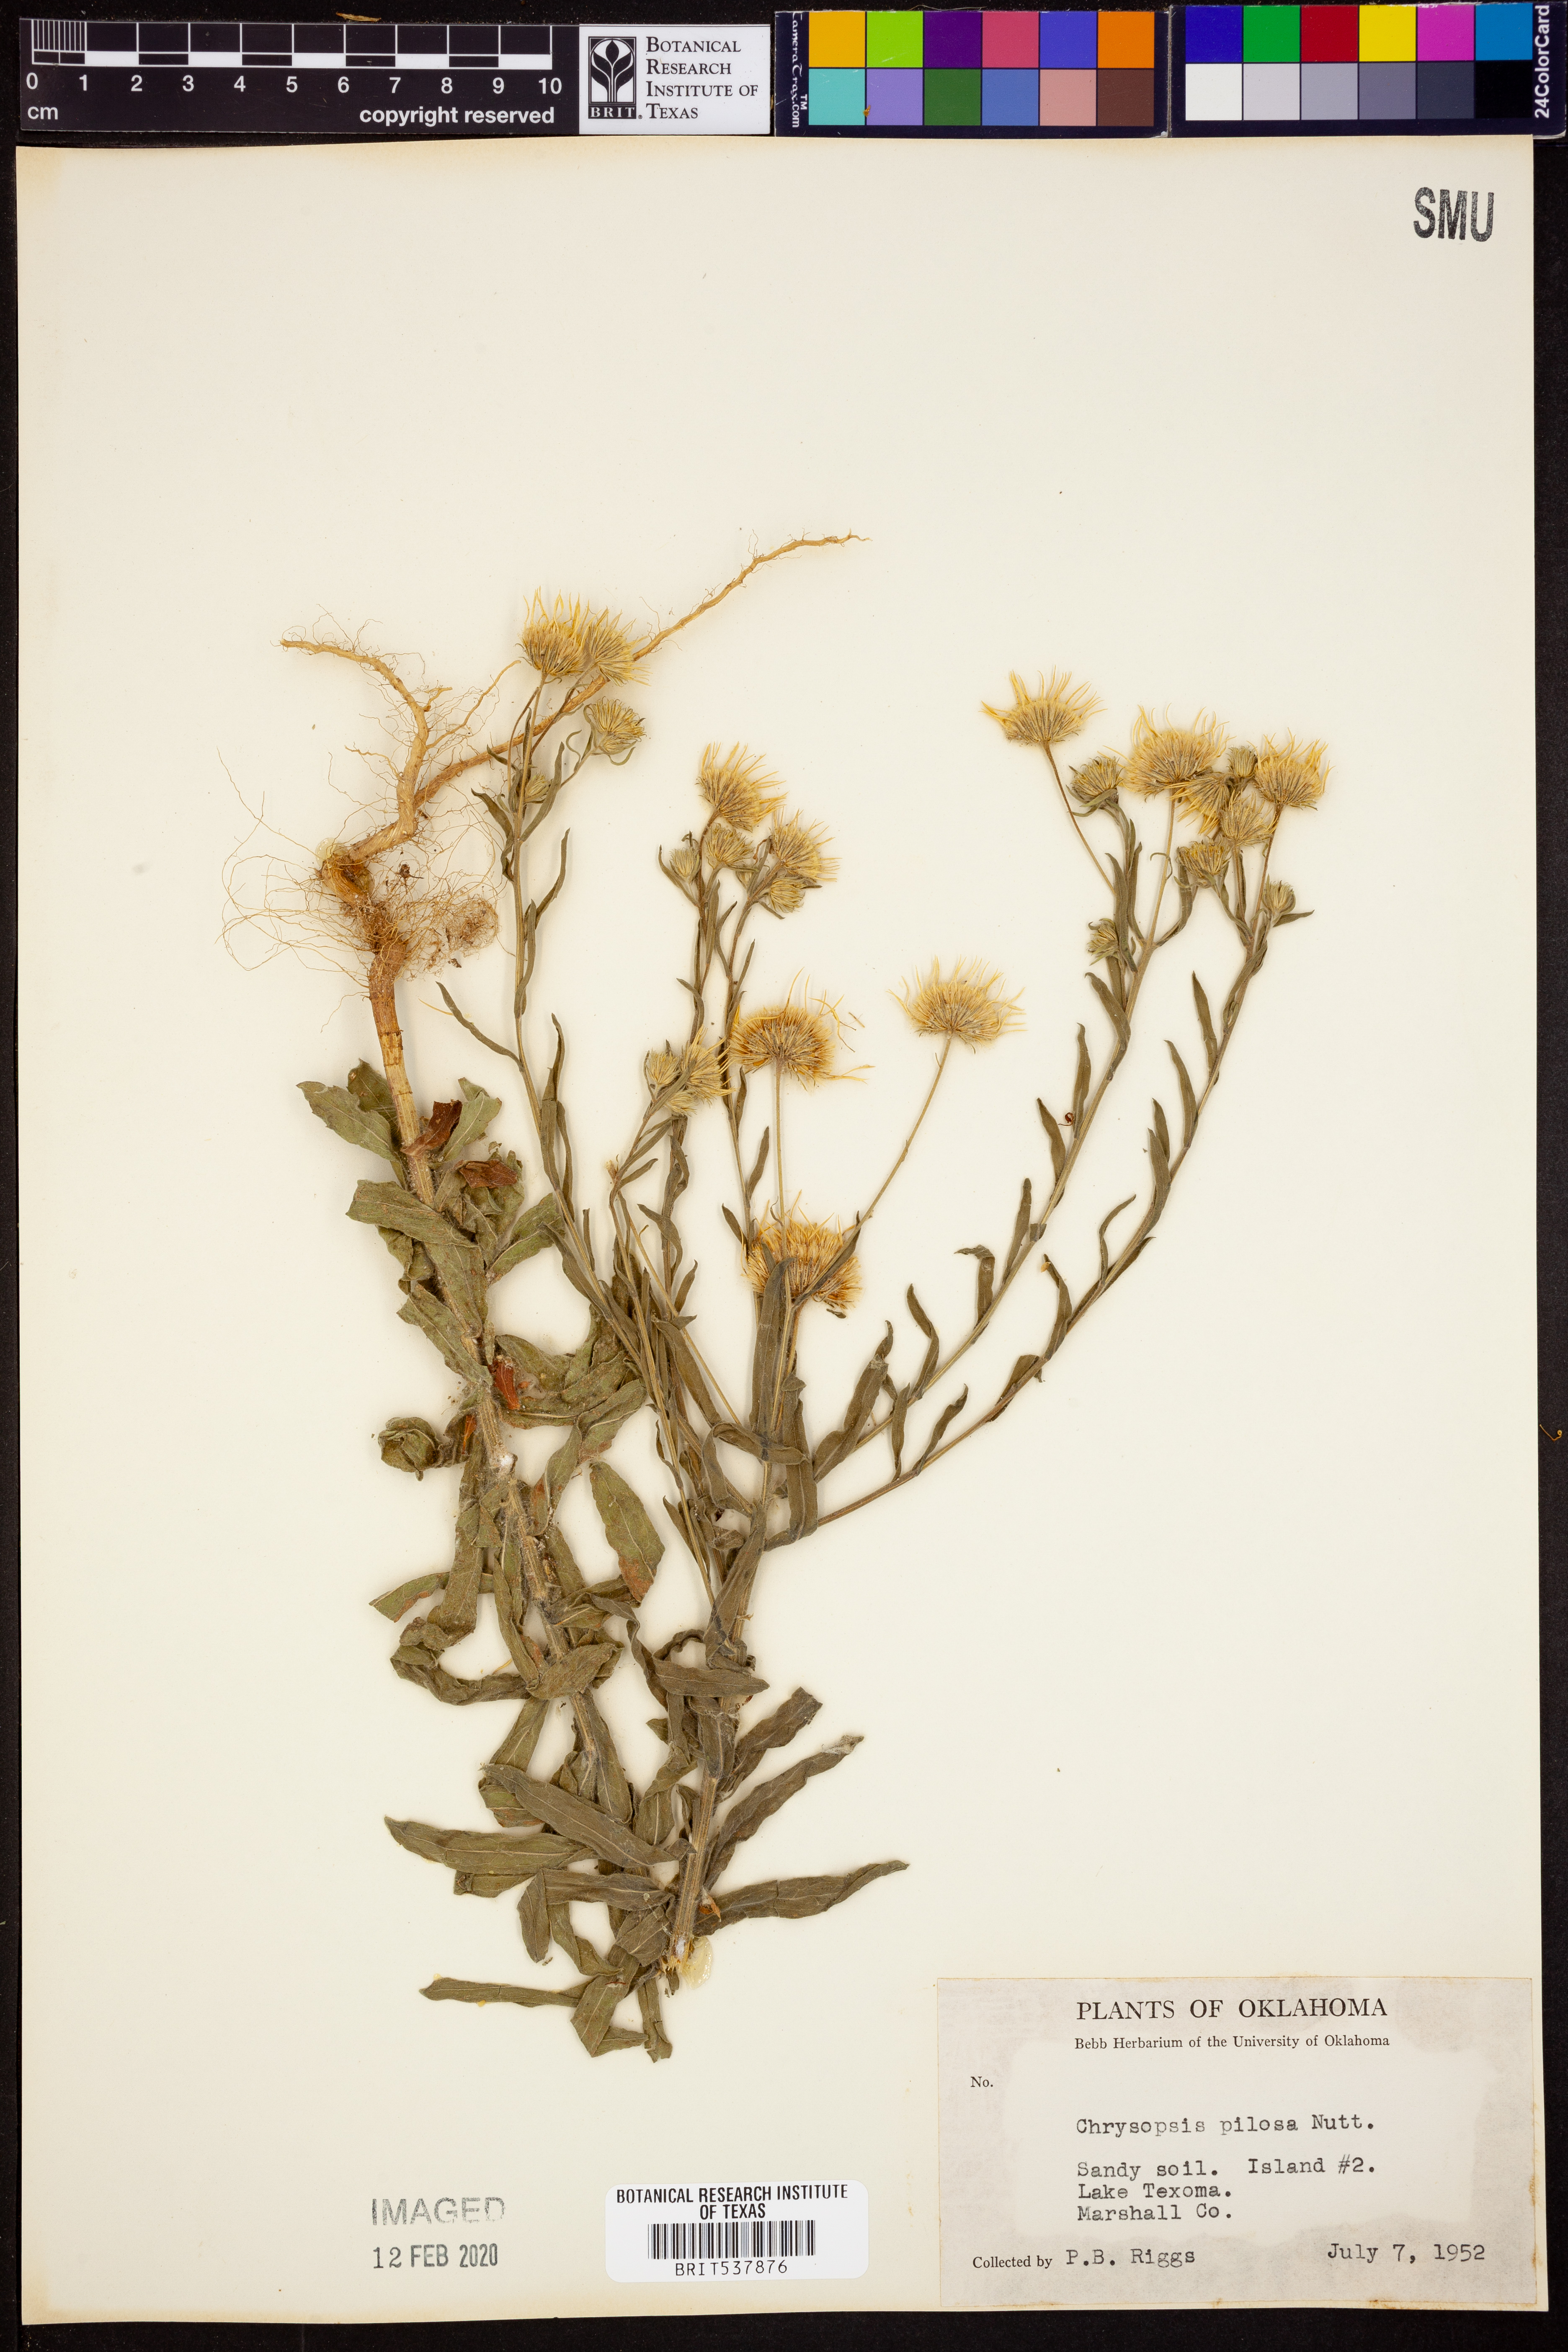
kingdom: Plantae
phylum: Tracheophyta
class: Magnoliopsida
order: Asterales
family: Asteraceae
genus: Bradburia
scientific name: Bradburia pilosa
